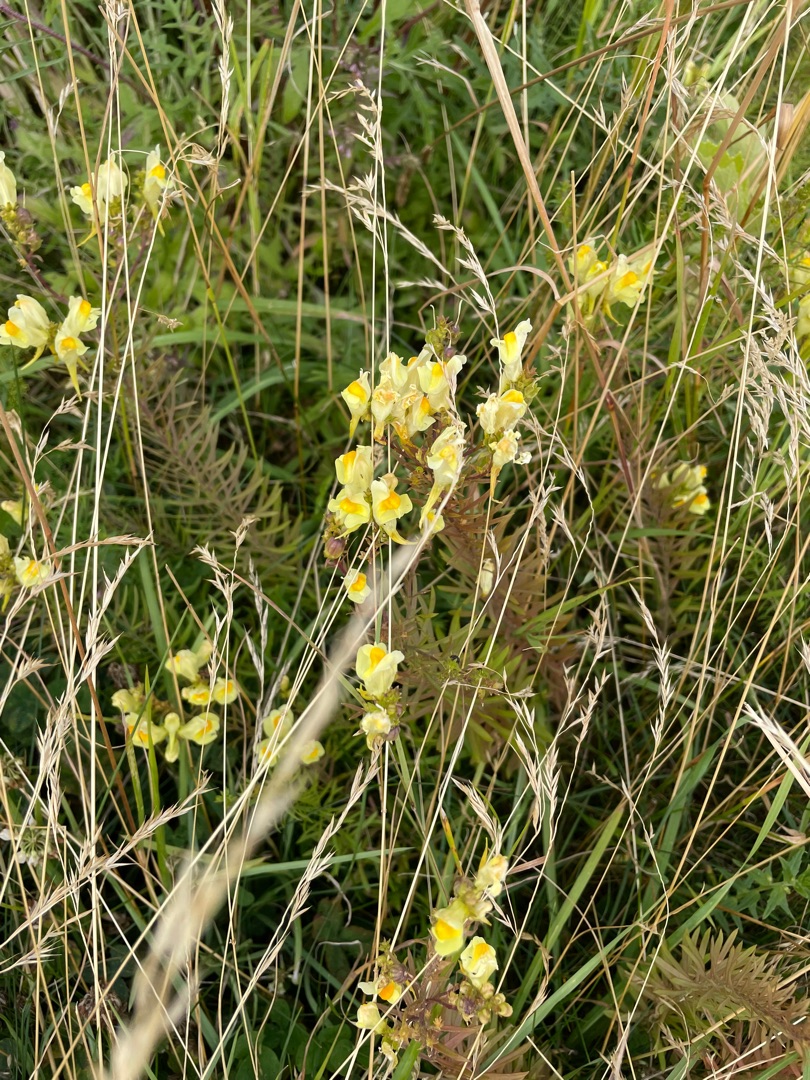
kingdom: Plantae
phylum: Tracheophyta
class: Magnoliopsida
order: Lamiales
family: Plantaginaceae
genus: Linaria
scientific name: Linaria vulgaris
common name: Almindelig torskemund
